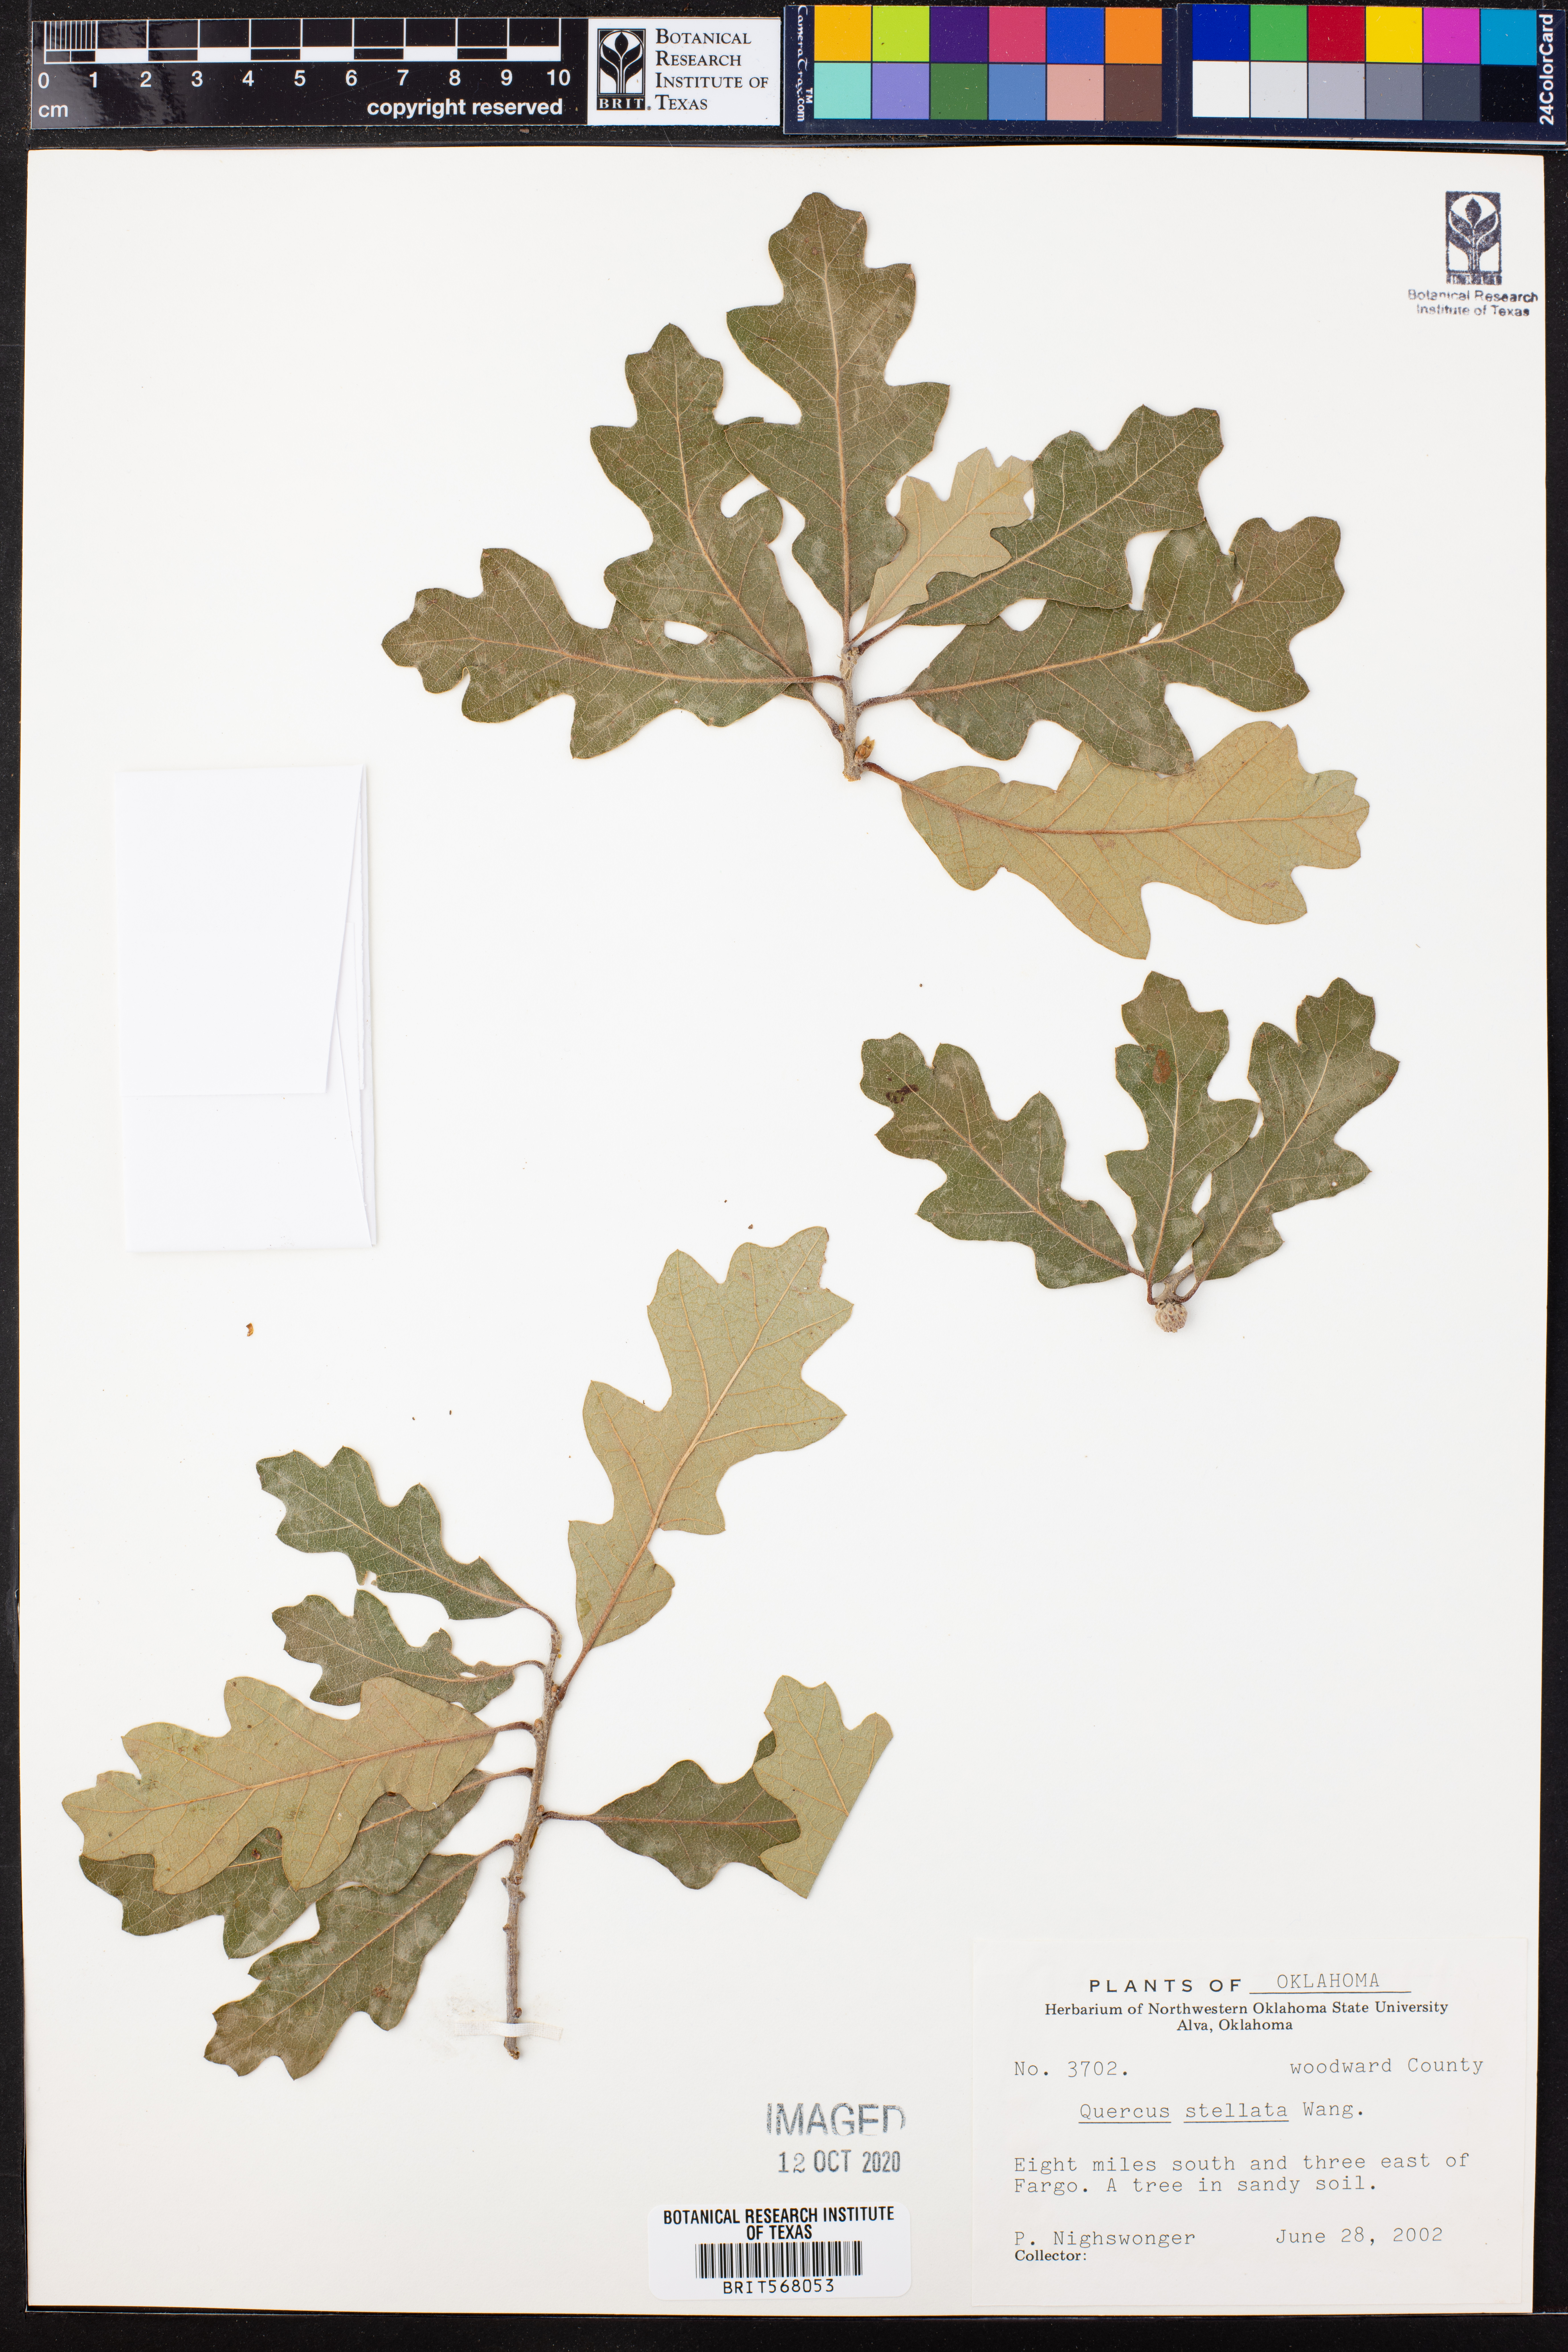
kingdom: Plantae
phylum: Tracheophyta
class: Magnoliopsida
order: Fagales
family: Fagaceae
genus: Quercus
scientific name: Quercus stellata
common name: Post oak
